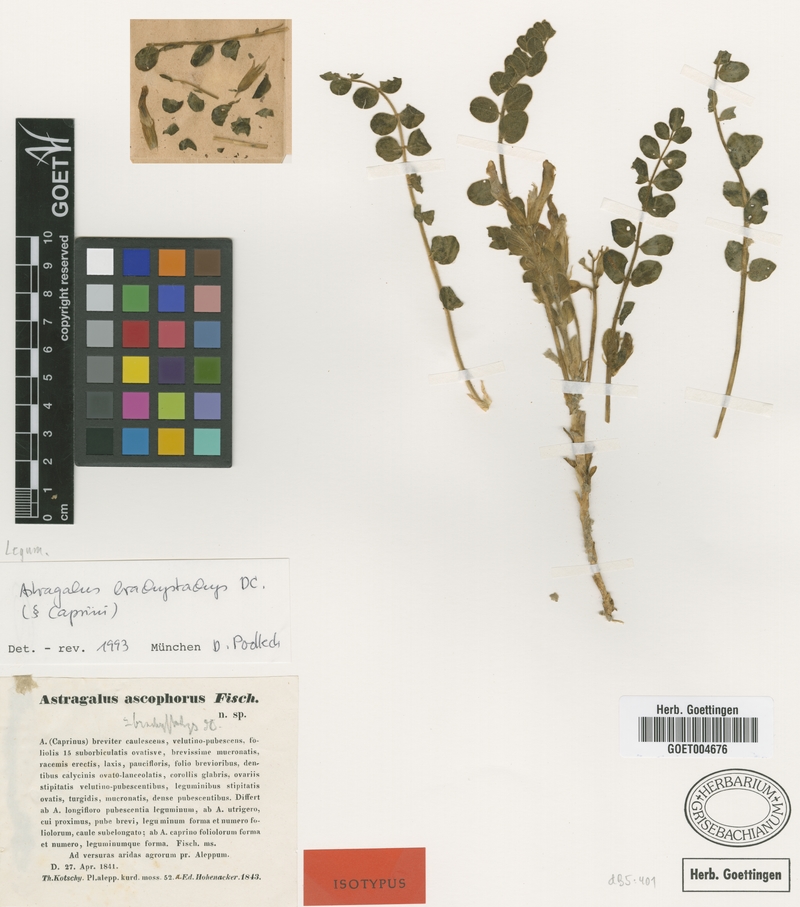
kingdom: Plantae
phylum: Tracheophyta
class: Magnoliopsida
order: Fabales
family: Fabaceae
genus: Astragalus
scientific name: Astragalus brachystachys
